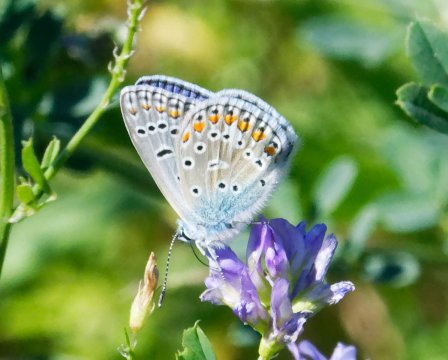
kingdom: Animalia
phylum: Arthropoda
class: Insecta
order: Lepidoptera
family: Lycaenidae
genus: Polyommatus
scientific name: Polyommatus icarus
